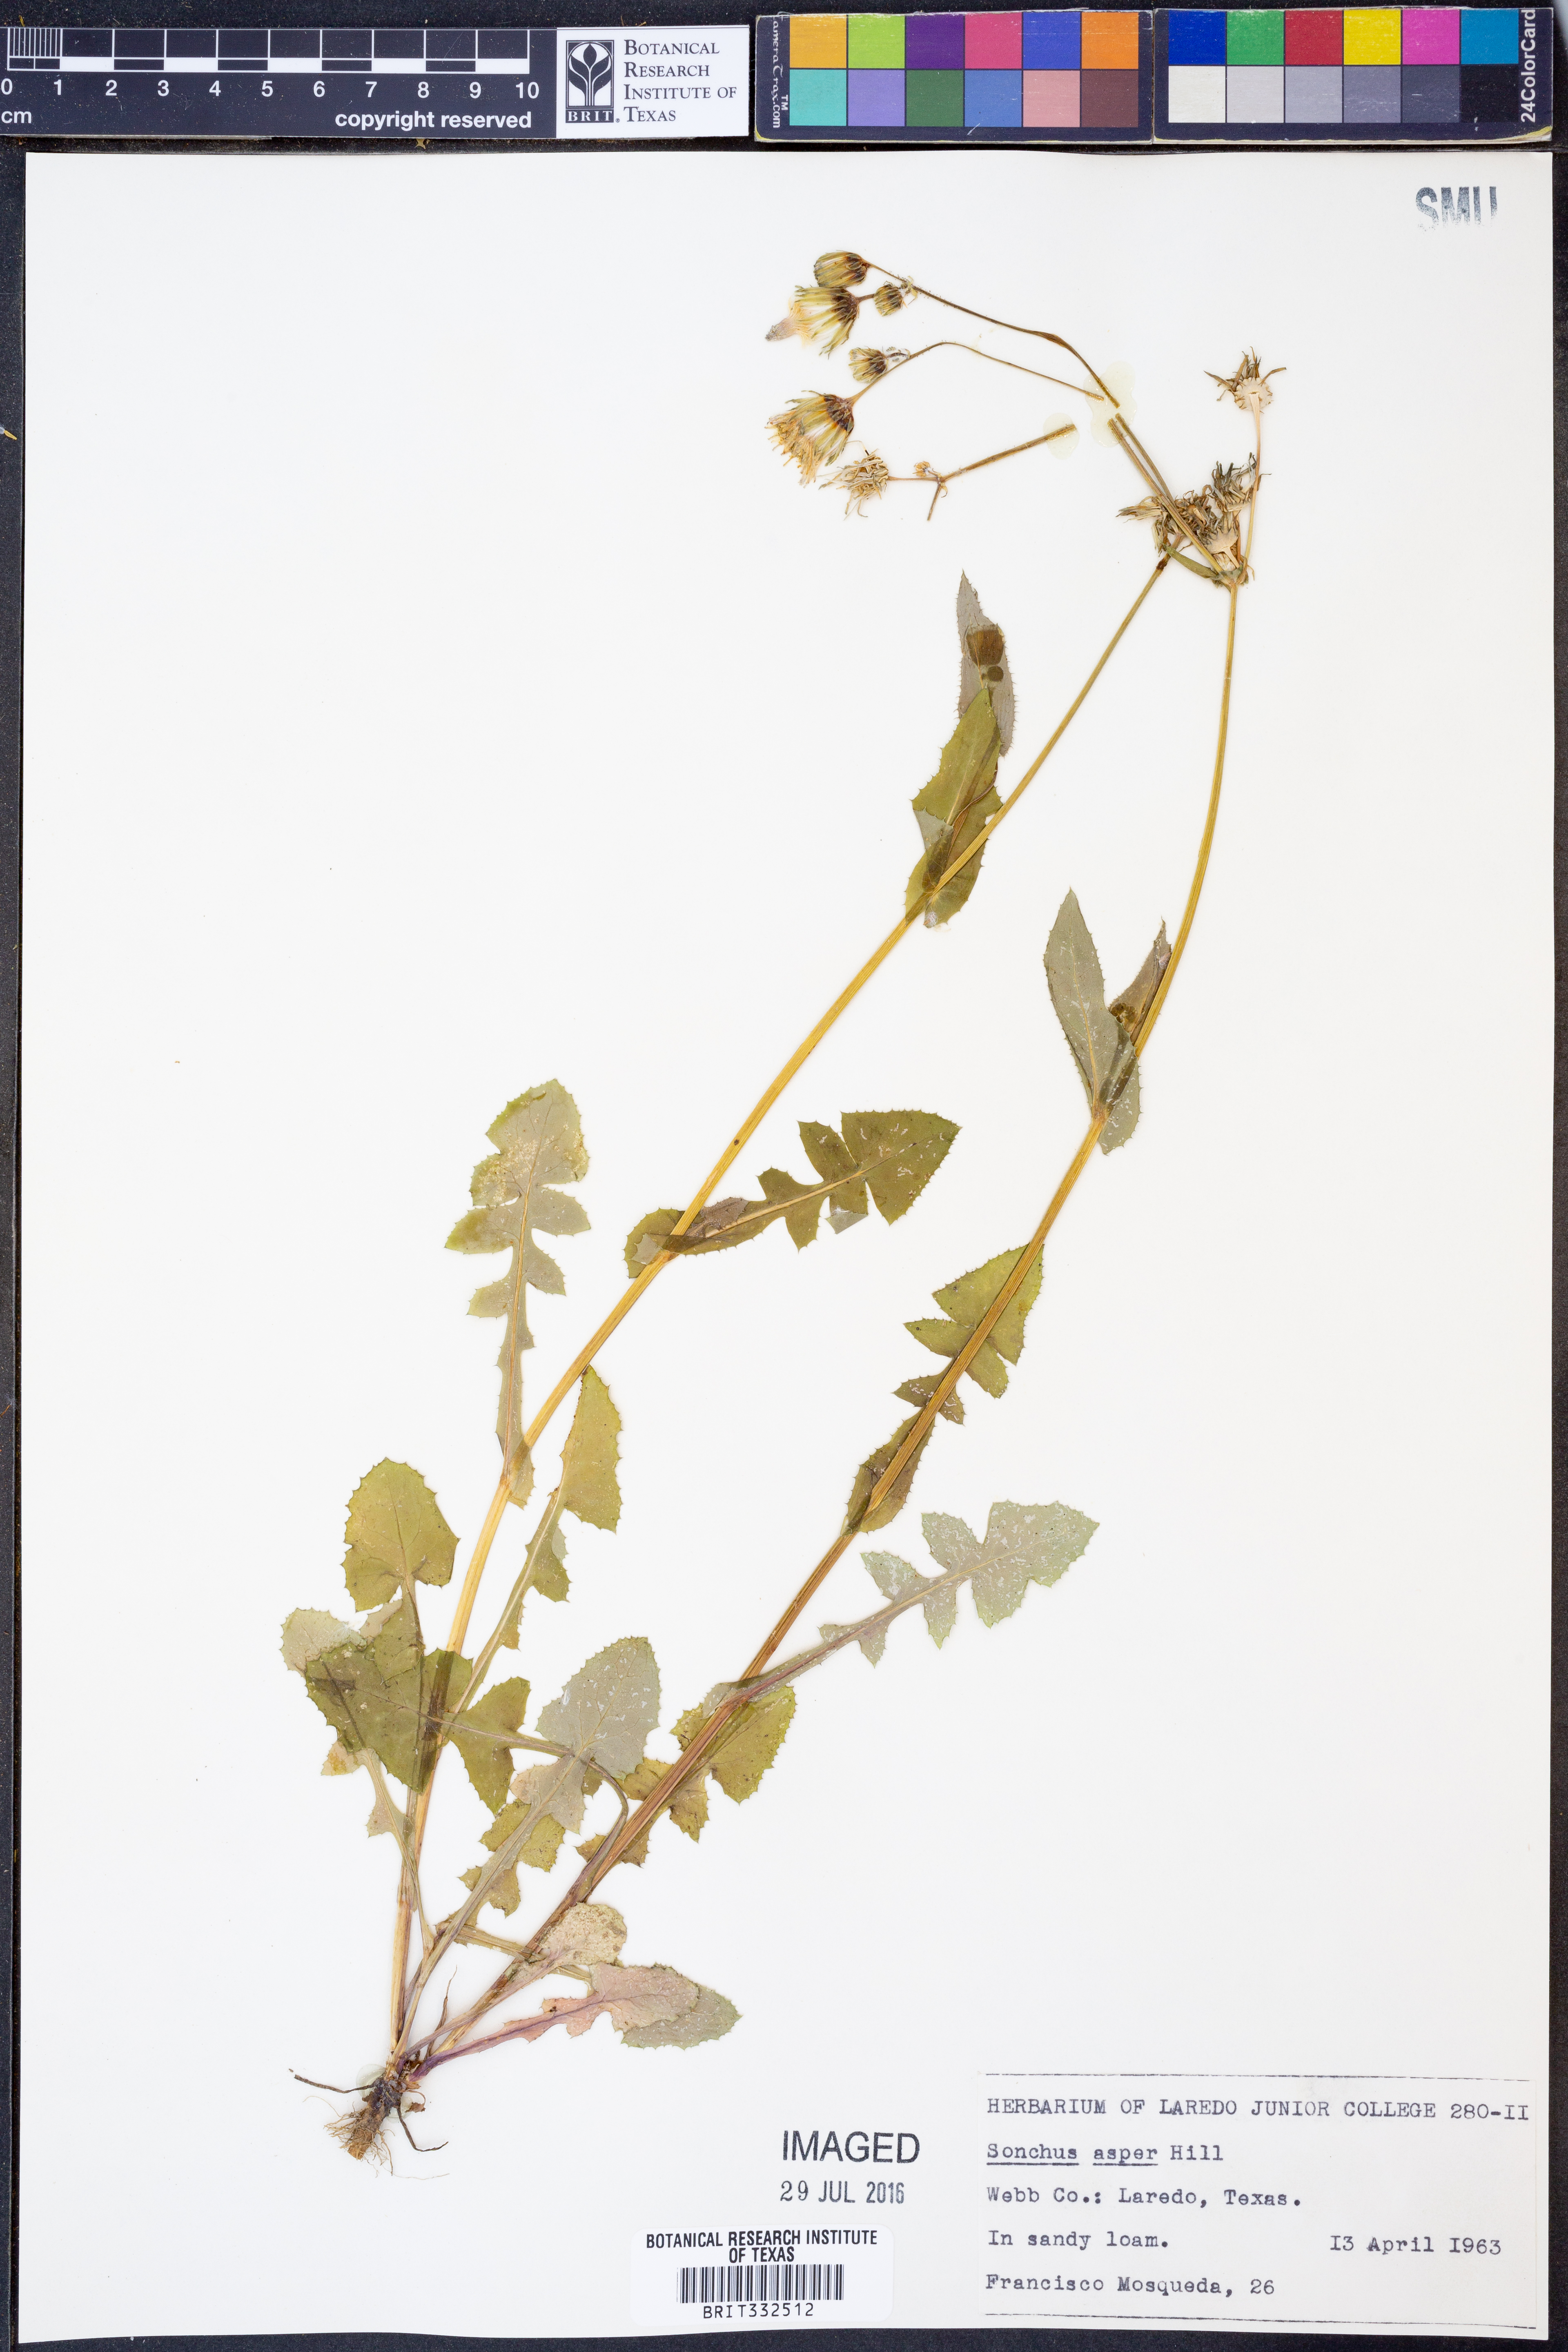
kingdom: Plantae
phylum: Tracheophyta
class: Magnoliopsida
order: Asterales
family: Asteraceae
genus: Sonchus
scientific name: Sonchus asper
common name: Prickly sow-thistle
